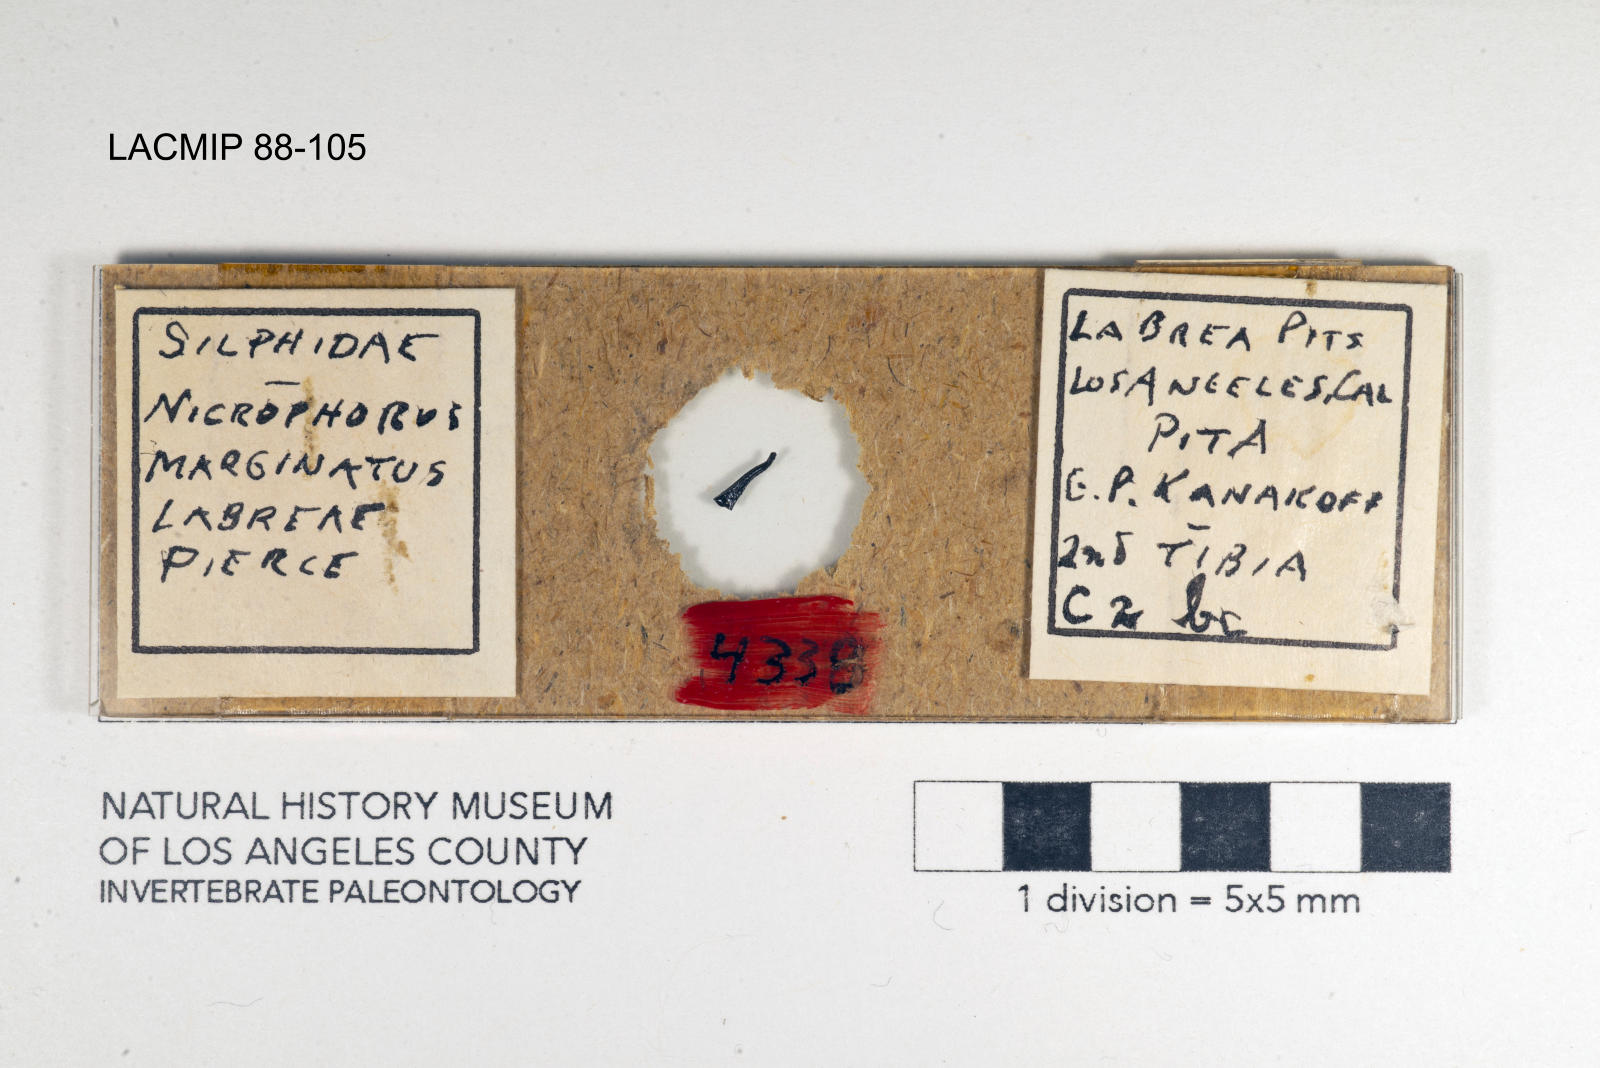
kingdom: Animalia
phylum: Arthropoda
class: Insecta
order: Coleoptera
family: Staphylinidae
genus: Nicrophorus
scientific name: Nicrophorus marginatus
